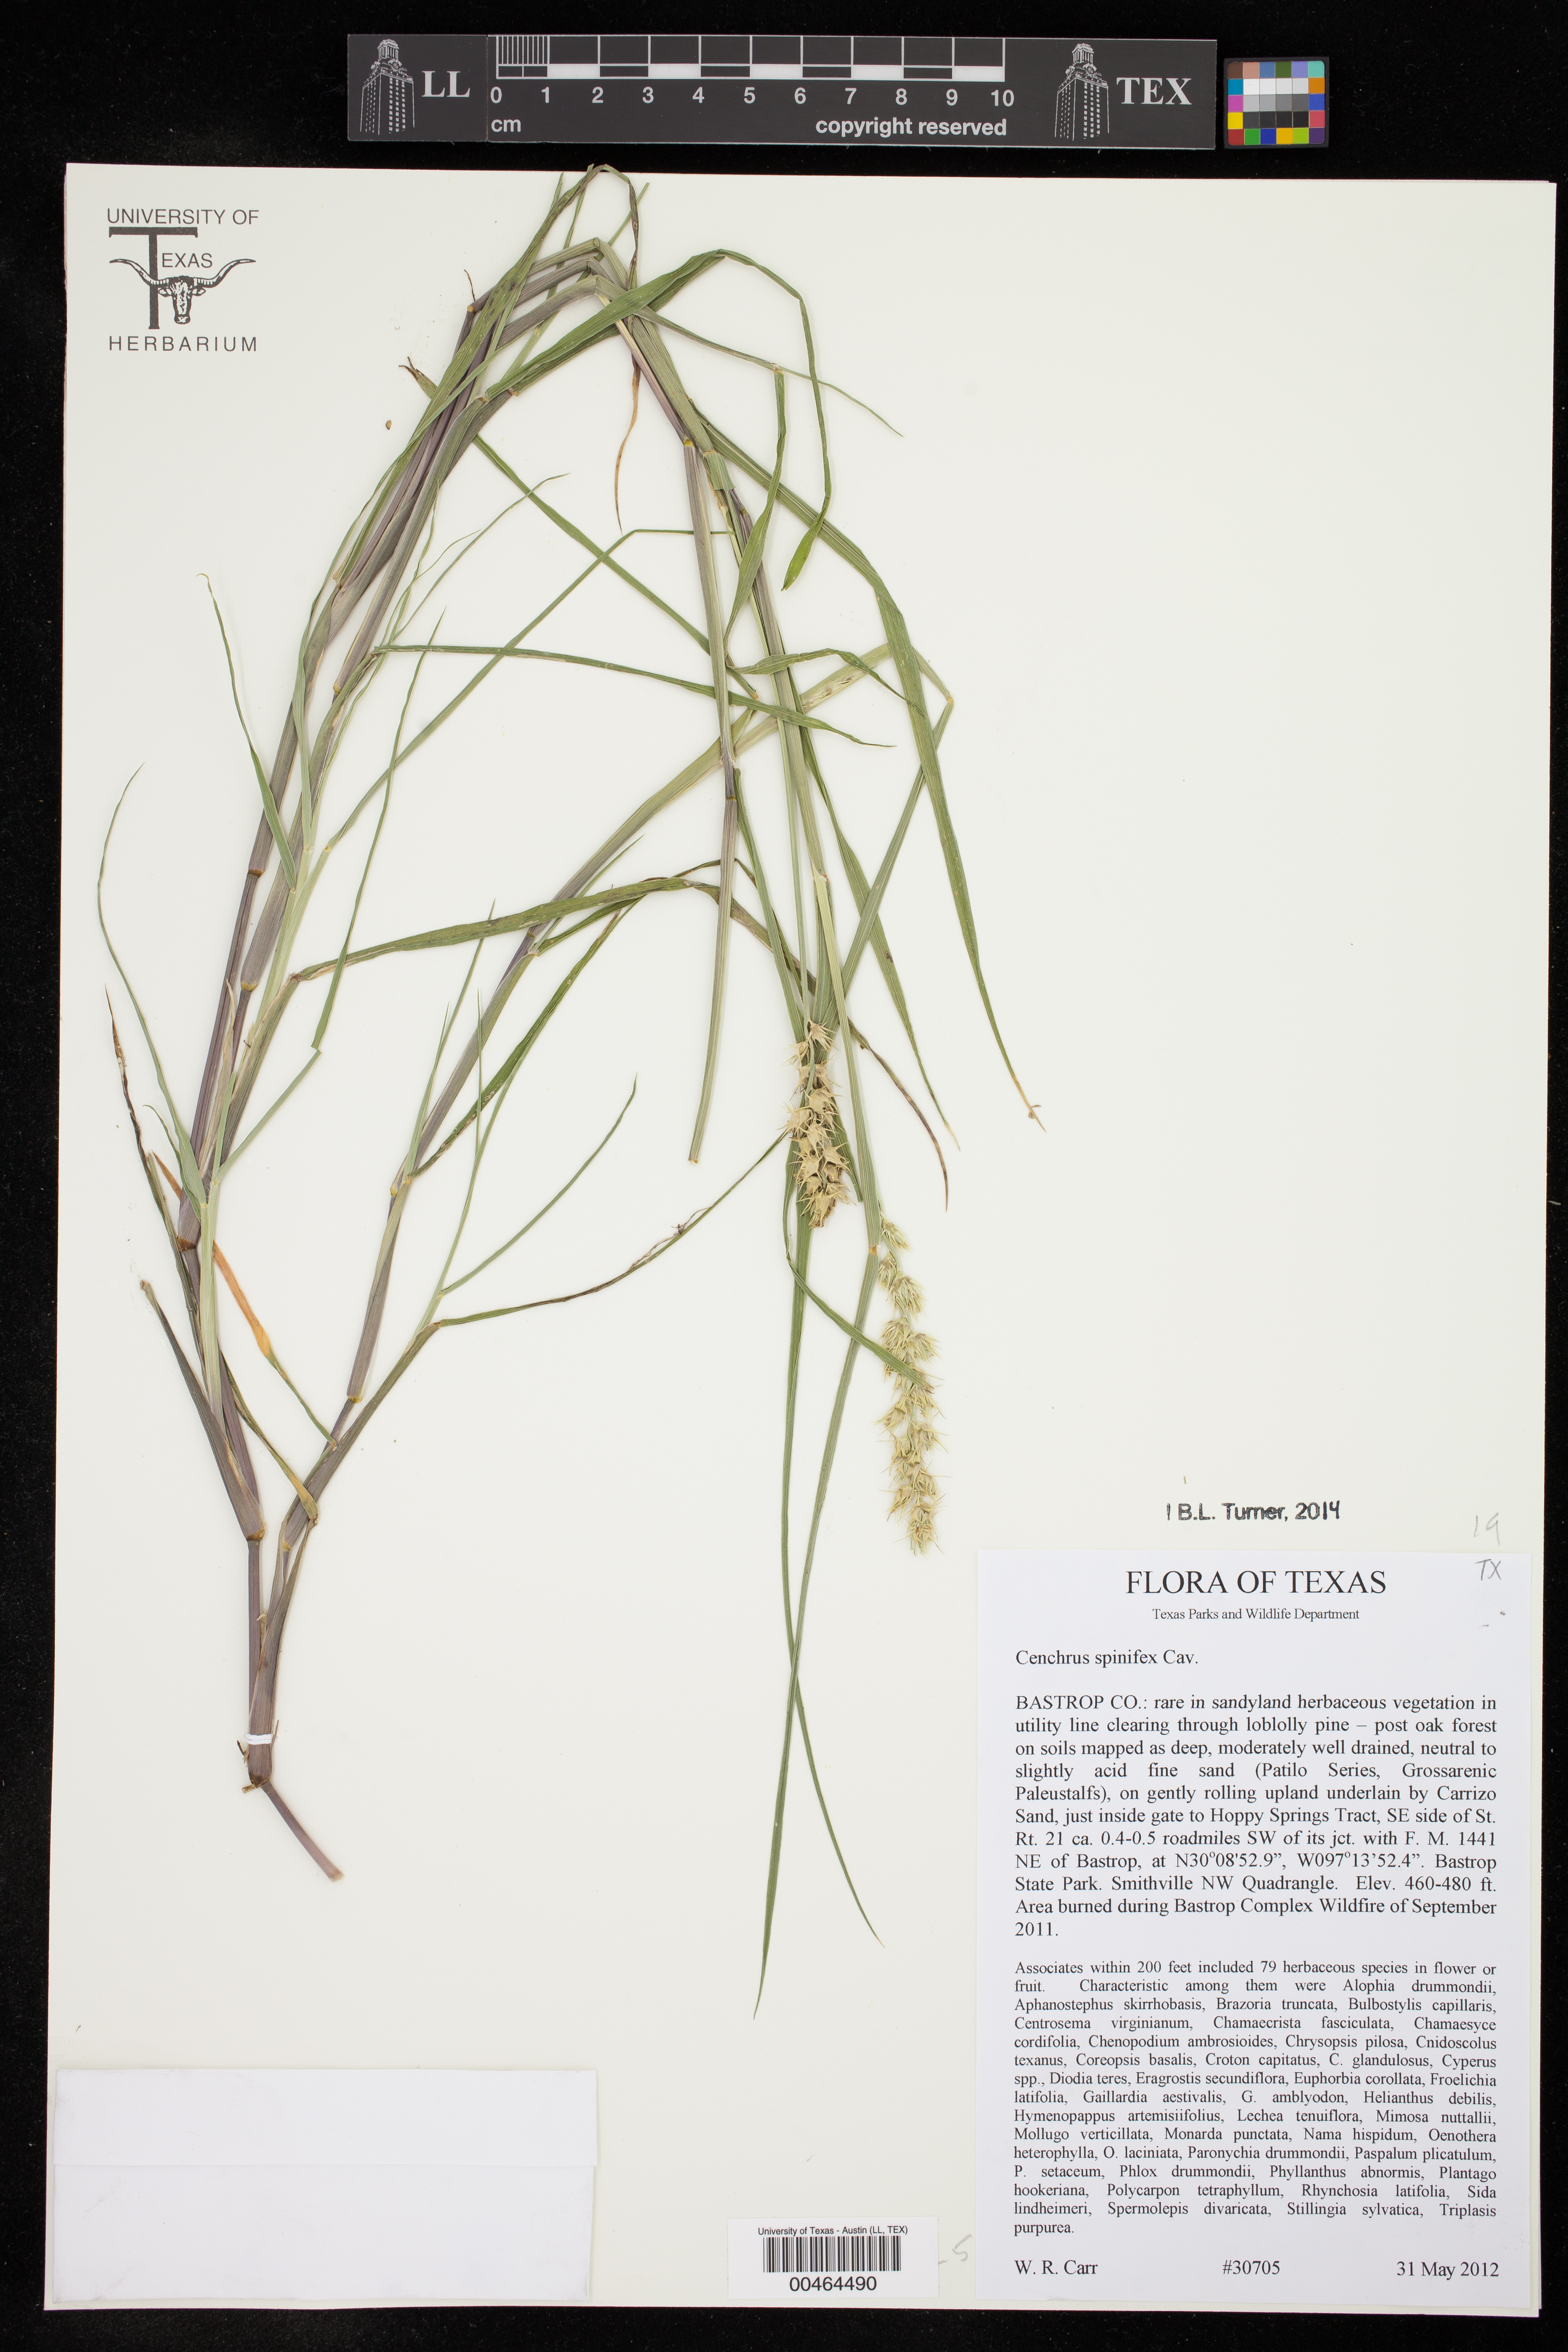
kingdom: Plantae
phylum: Tracheophyta
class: Liliopsida
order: Poales
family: Poaceae
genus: Cenchrus
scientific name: Cenchrus spinifex
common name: Coast sandbur
